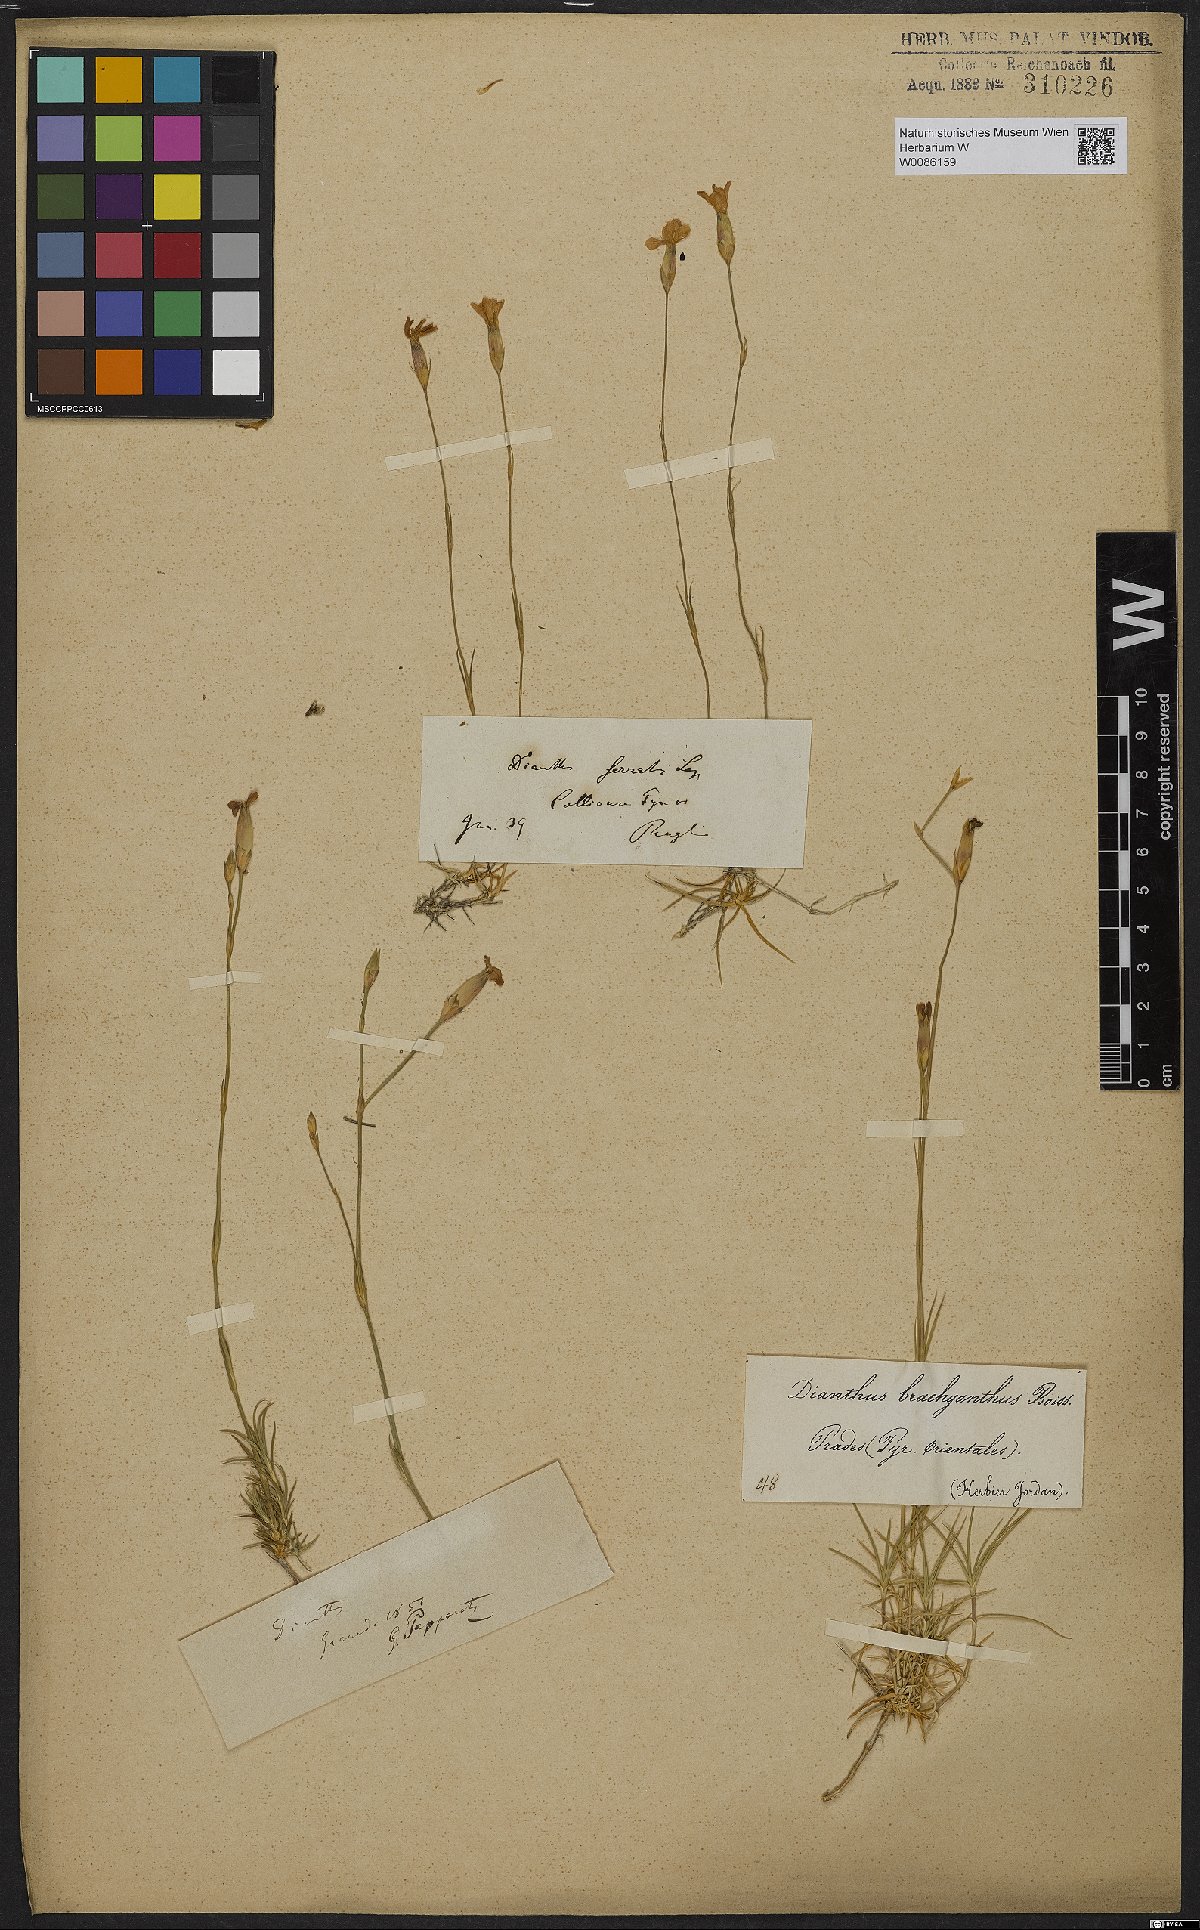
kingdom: Plantae
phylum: Tracheophyta
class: Magnoliopsida
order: Caryophyllales
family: Caryophyllaceae
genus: Dianthus
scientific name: Dianthus pungens
